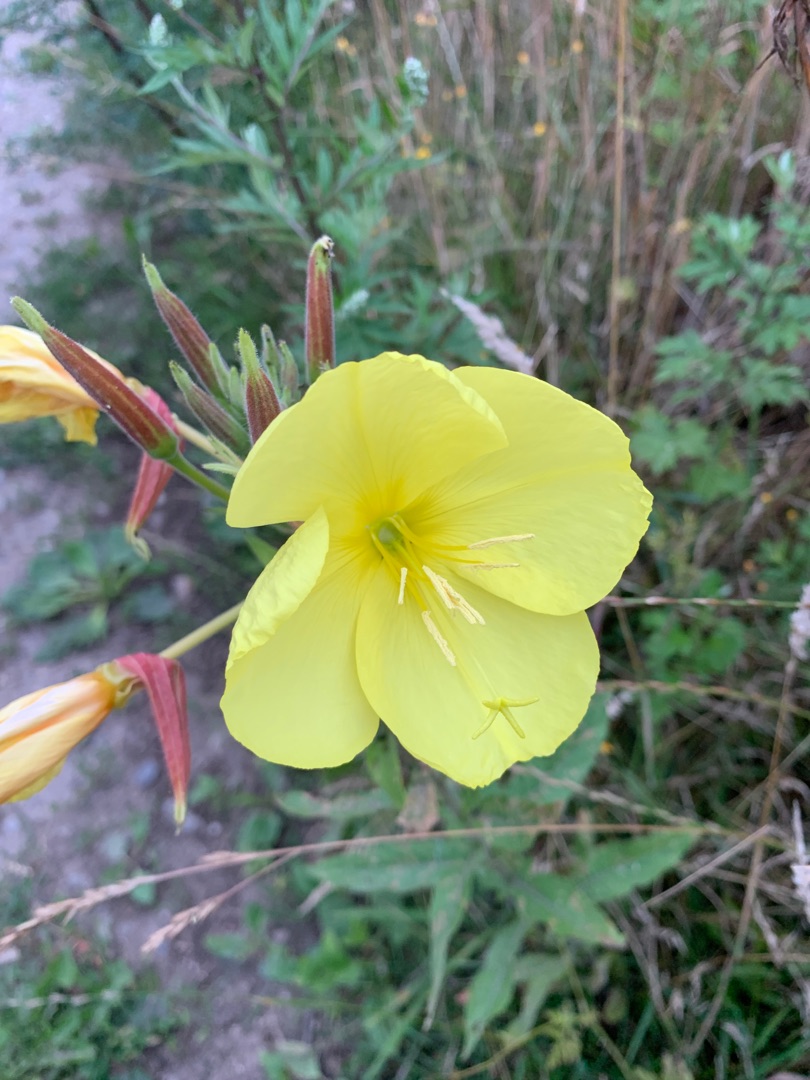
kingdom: Plantae
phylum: Tracheophyta
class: Magnoliopsida
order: Myrtales
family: Onagraceae
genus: Oenothera
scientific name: Oenothera glazioviana
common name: Kæmpe-natlys
